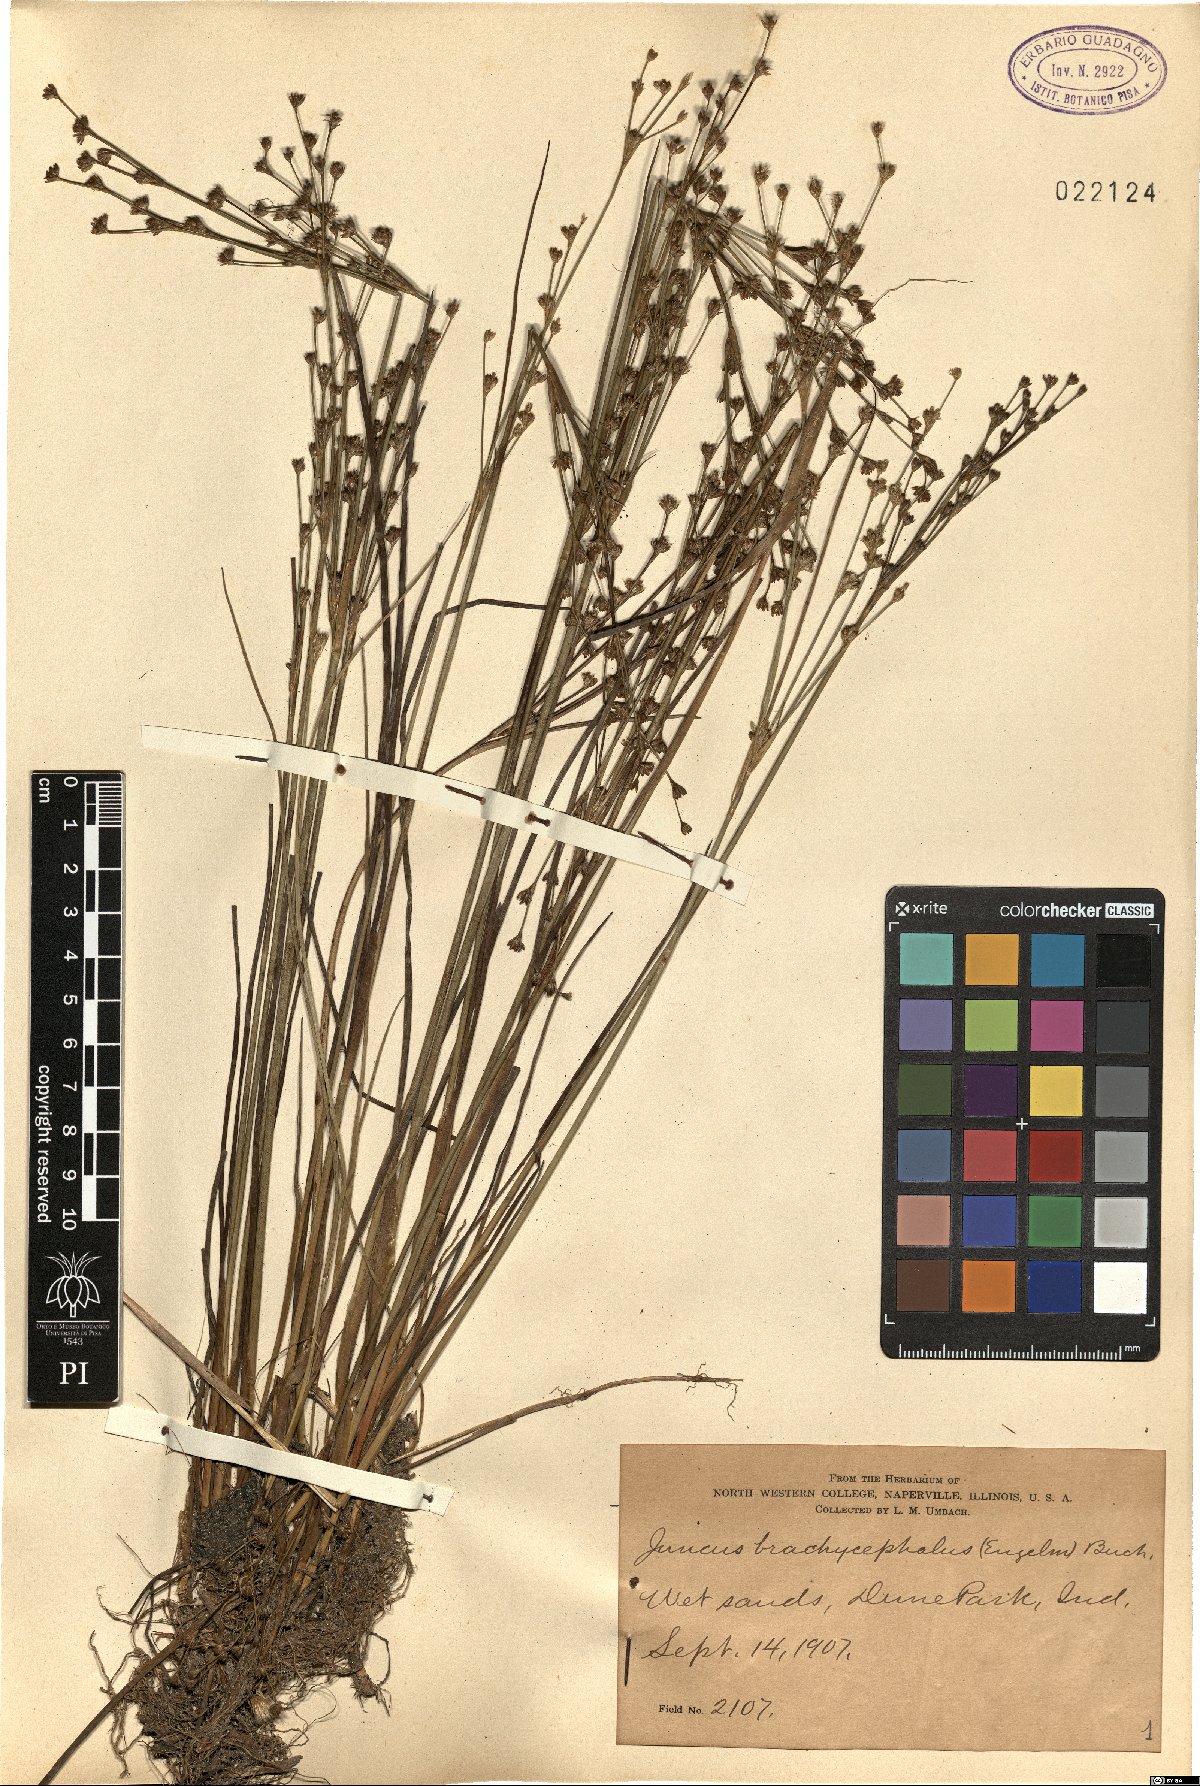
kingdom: Plantae
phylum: Tracheophyta
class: Liliopsida
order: Poales
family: Juncaceae
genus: Juncus
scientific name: Juncus brachycephalus
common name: Short-headed rush
